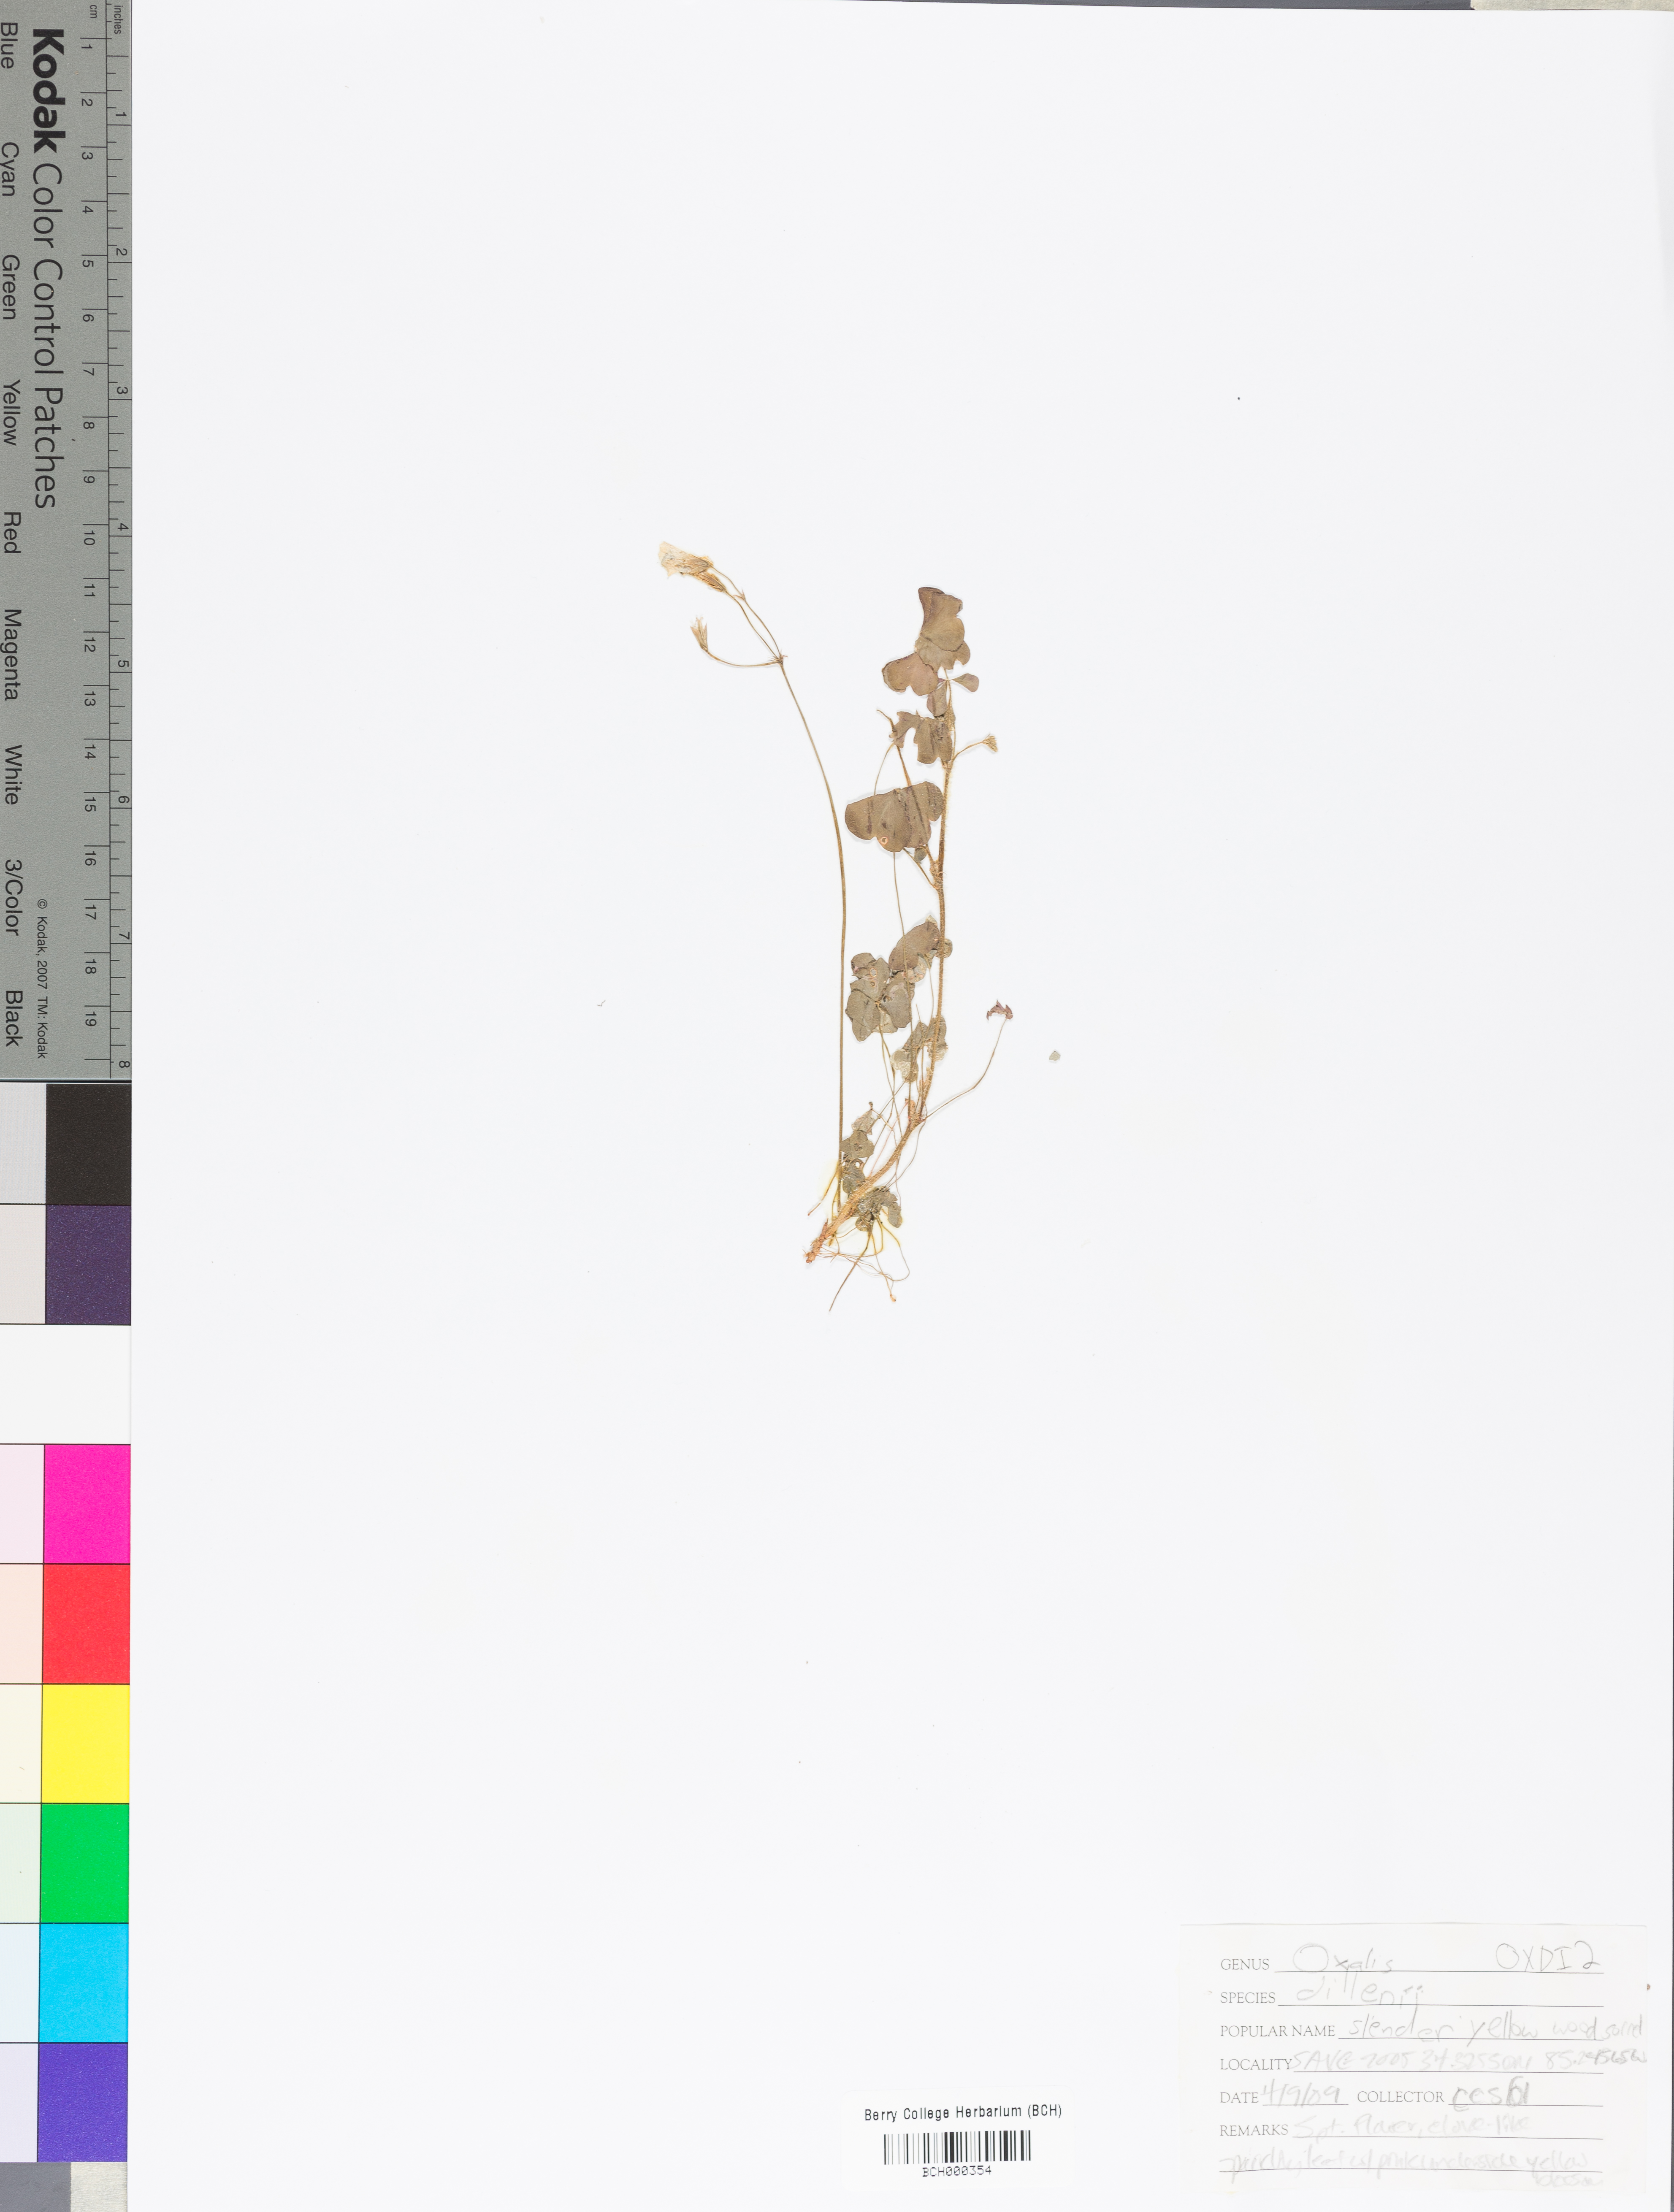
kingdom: Plantae
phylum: Tracheophyta
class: Magnoliopsida
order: Oxalidales
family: Oxalidaceae
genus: Oxalis
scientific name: Oxalis dillenii
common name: Sussex yellow-sorrel
